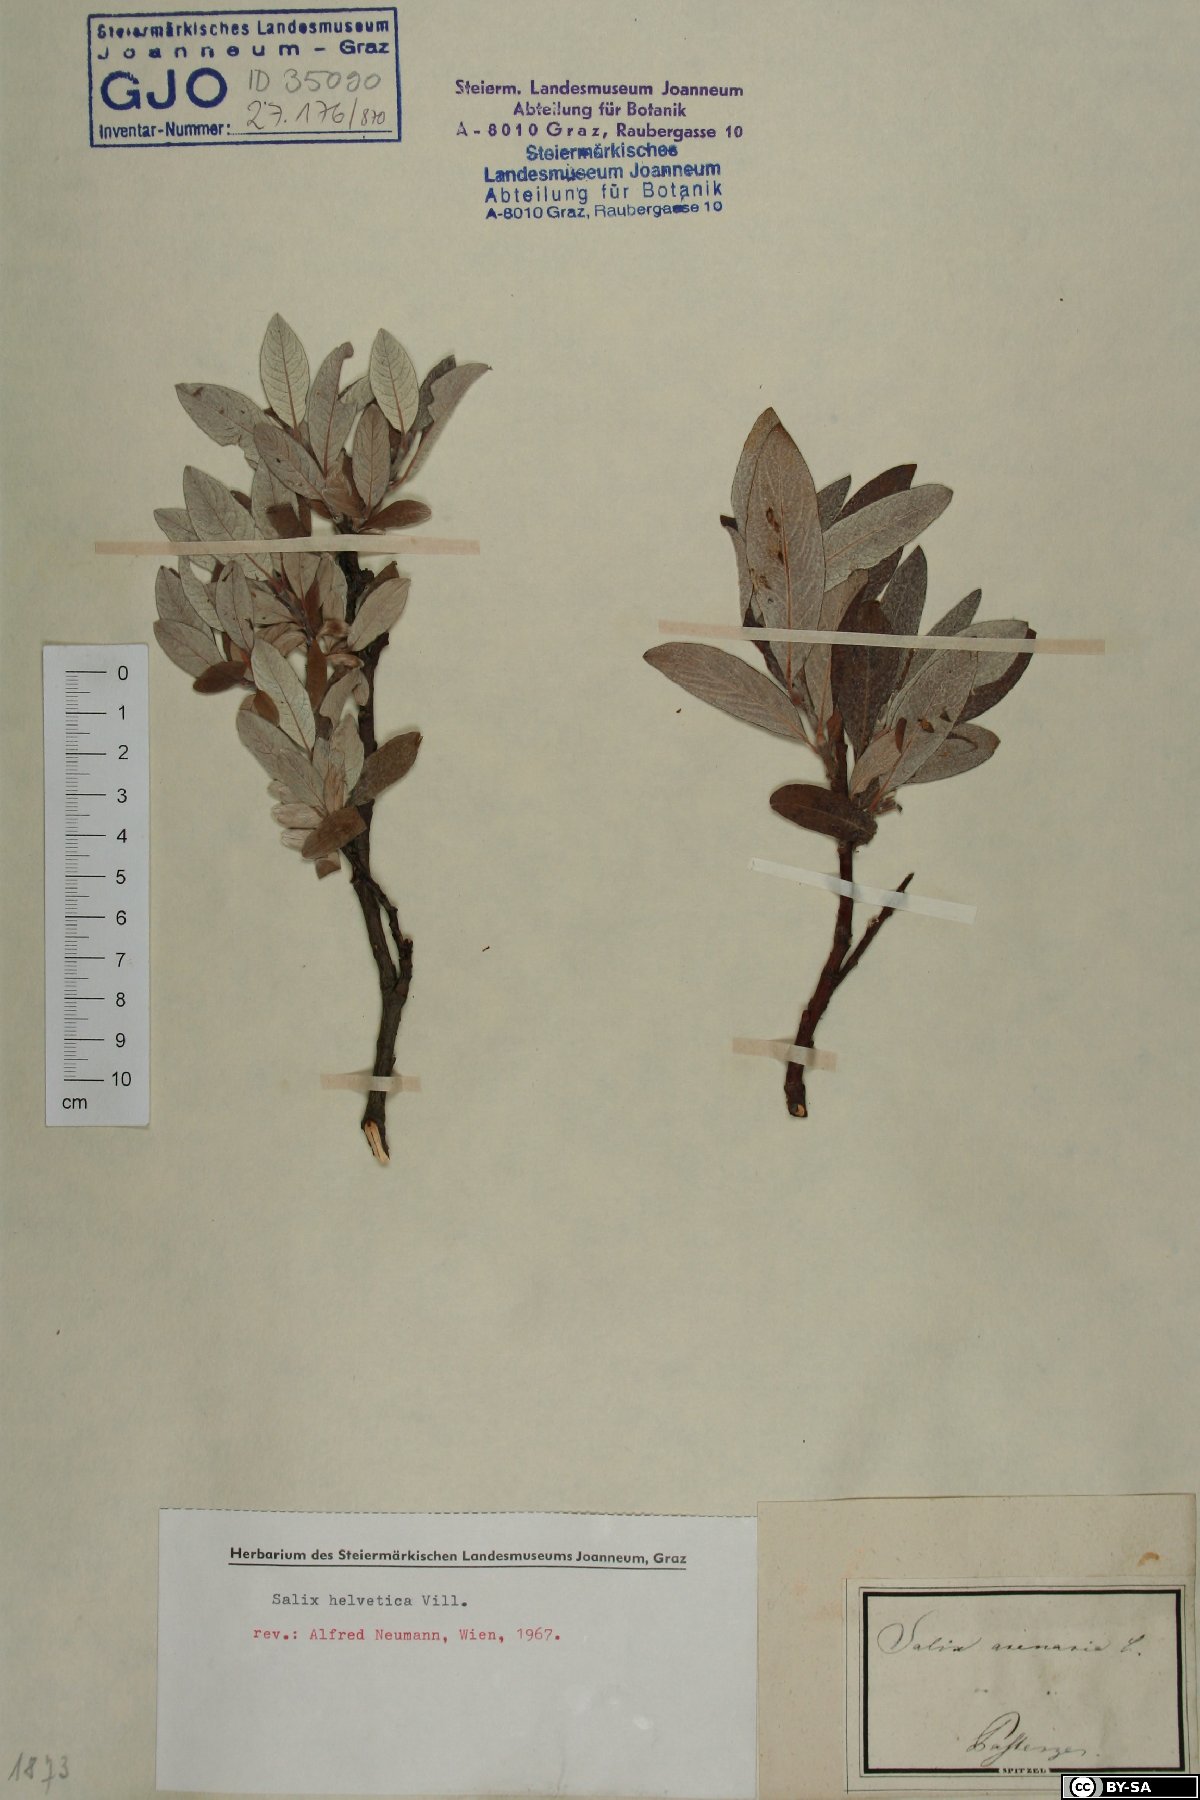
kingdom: Plantae
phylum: Tracheophyta
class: Magnoliopsida
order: Malpighiales
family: Salicaceae
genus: Salix
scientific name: Salix helvetica
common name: Swiss willow
